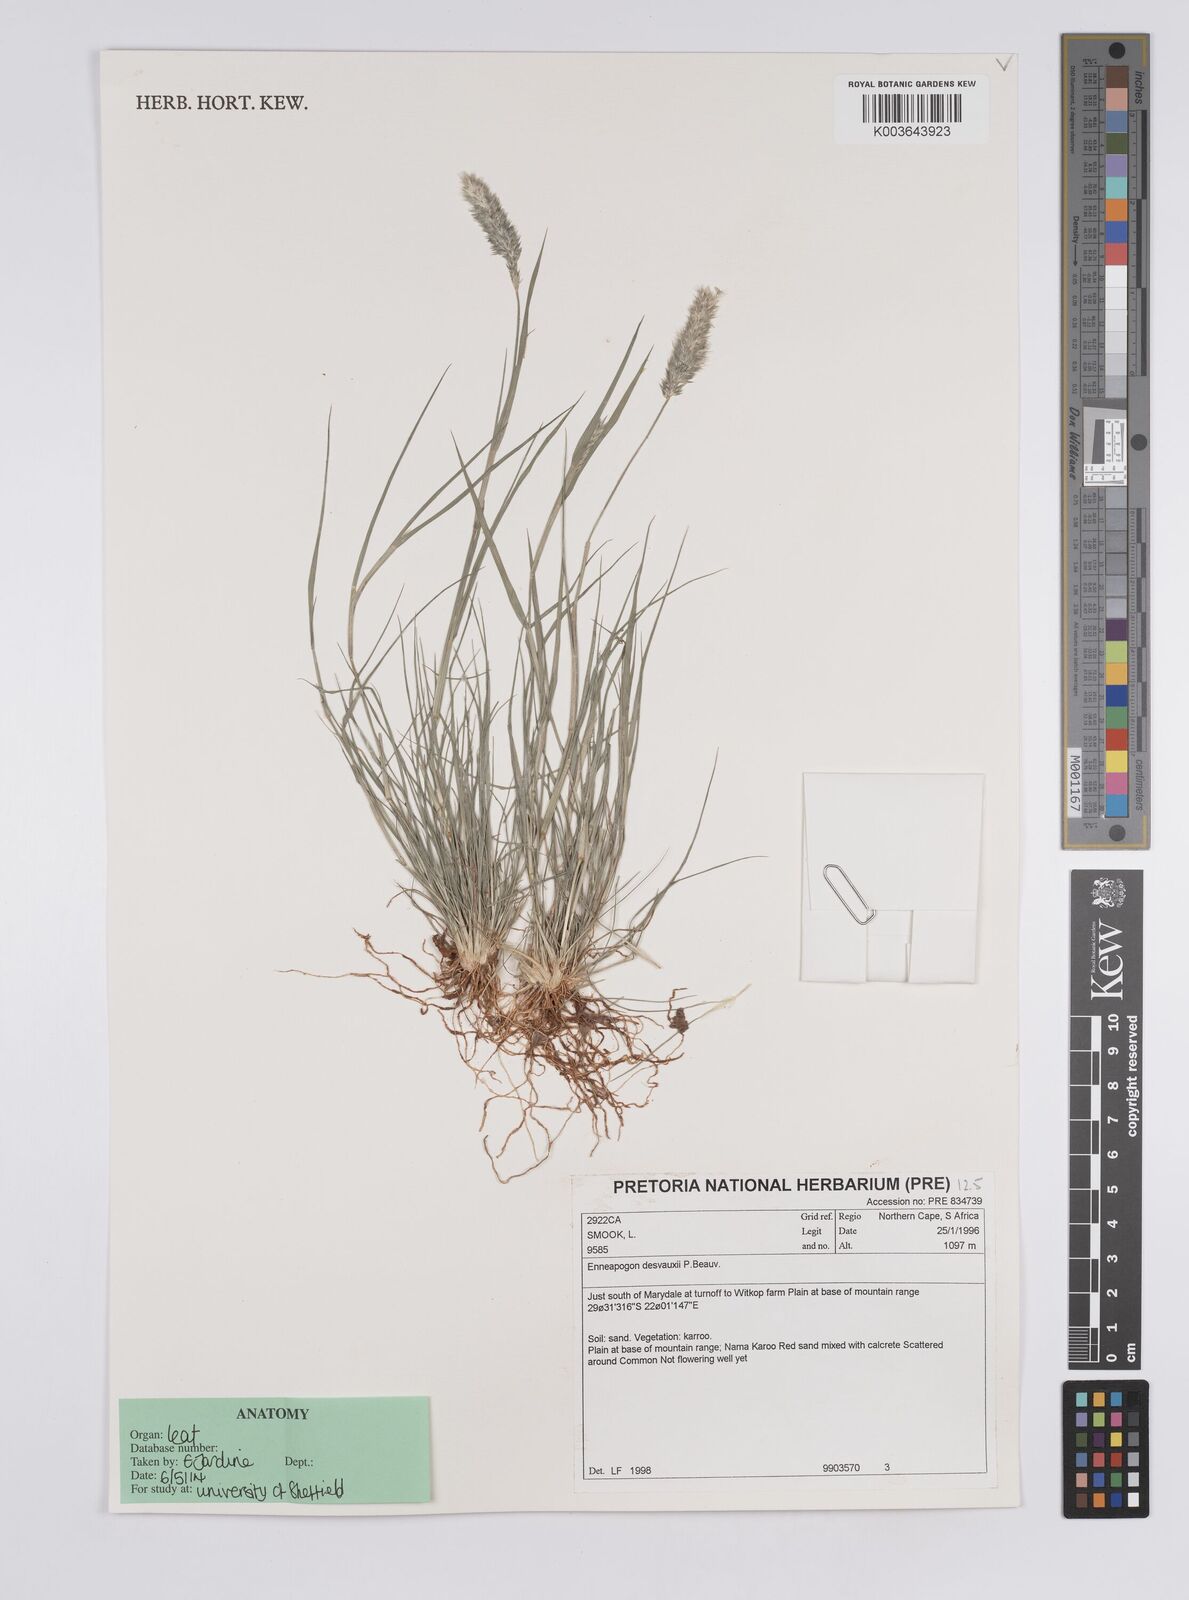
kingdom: Plantae
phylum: Tracheophyta
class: Liliopsida
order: Poales
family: Poaceae
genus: Enneapogon
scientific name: Enneapogon desvauxii
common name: Feather pappus grass
